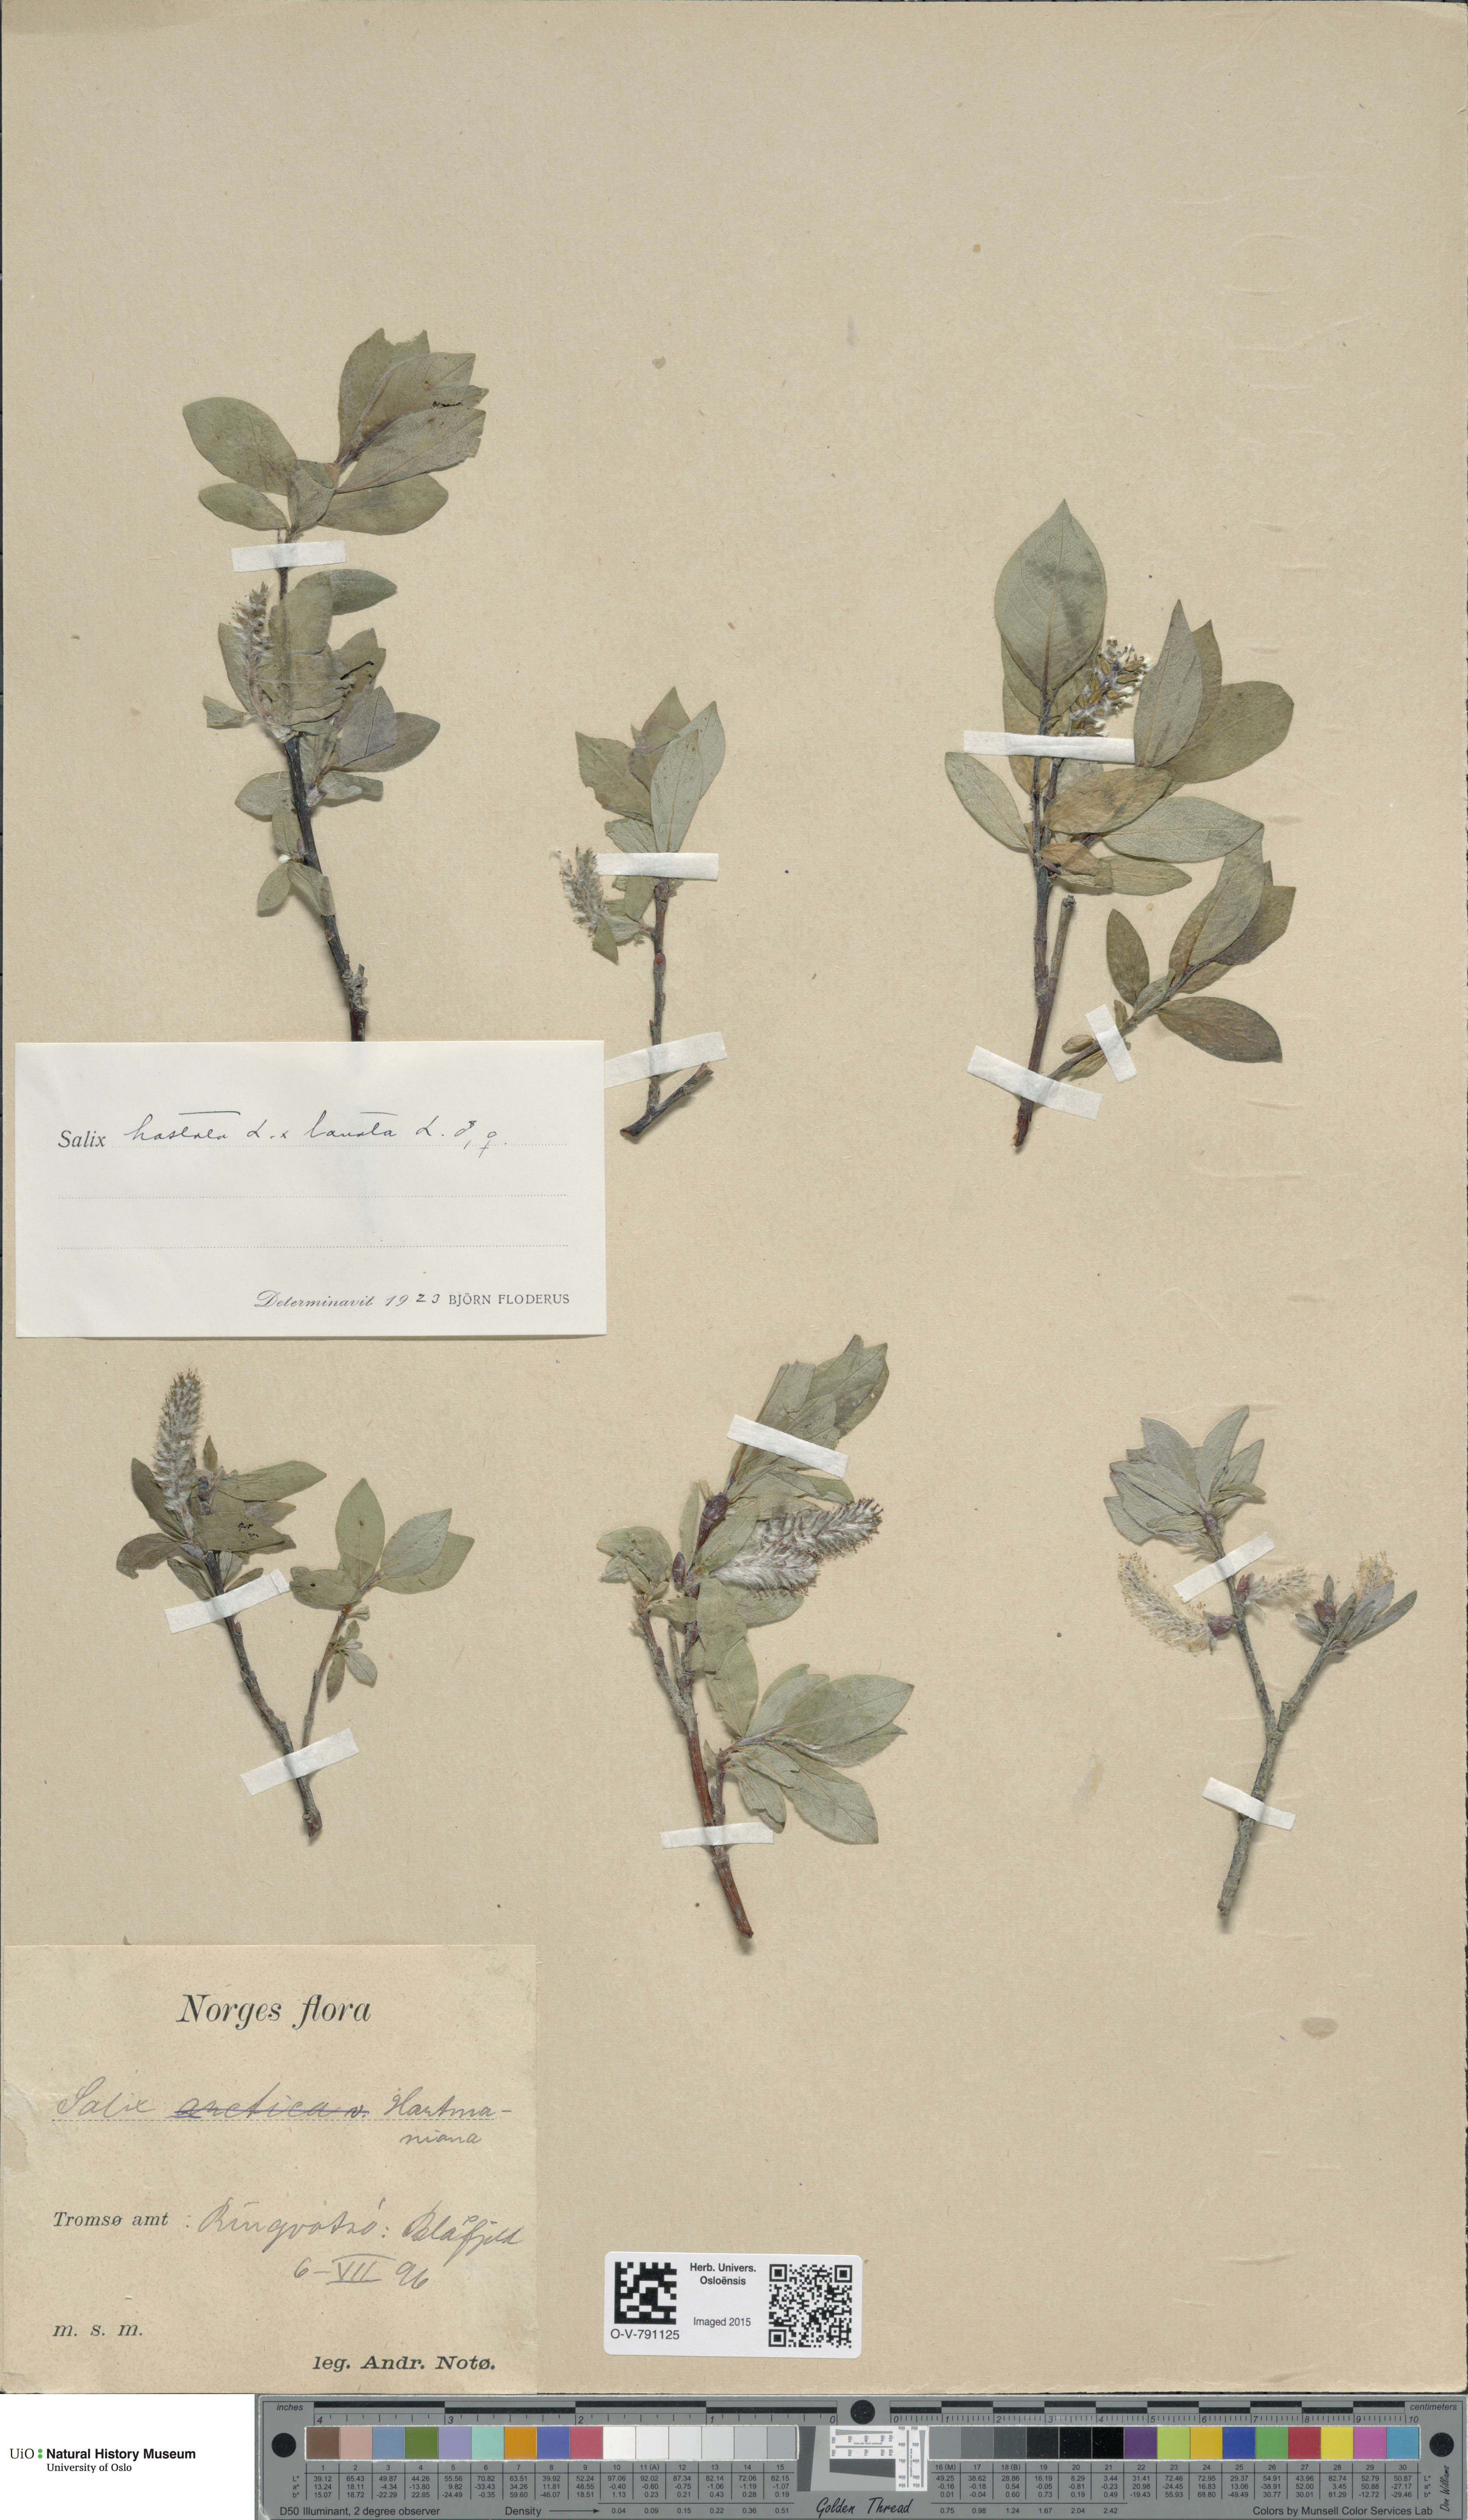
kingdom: Plantae
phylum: Tracheophyta
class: Magnoliopsida
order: Malpighiales
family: Salicaceae
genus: Salix
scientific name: Salix
